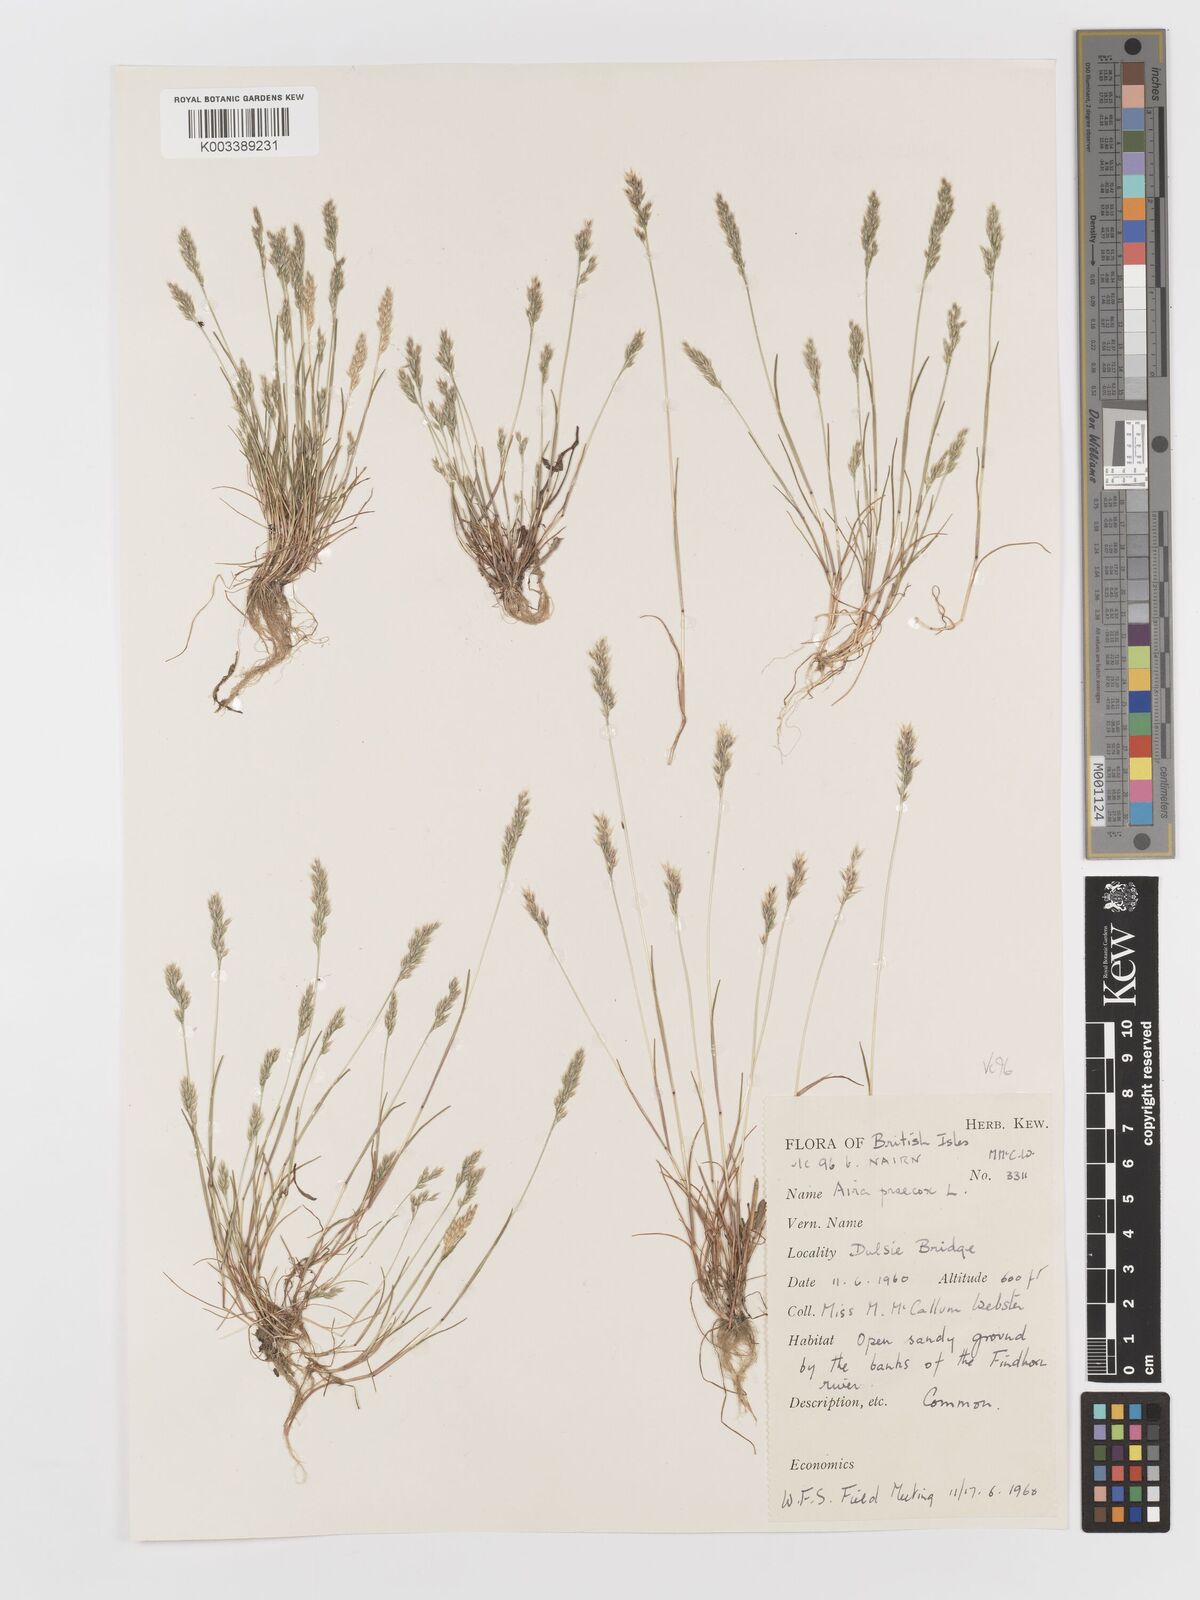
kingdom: Plantae
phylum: Tracheophyta
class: Liliopsida
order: Poales
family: Poaceae
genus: Aira
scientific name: Aira praecox
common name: Early hair-grass
